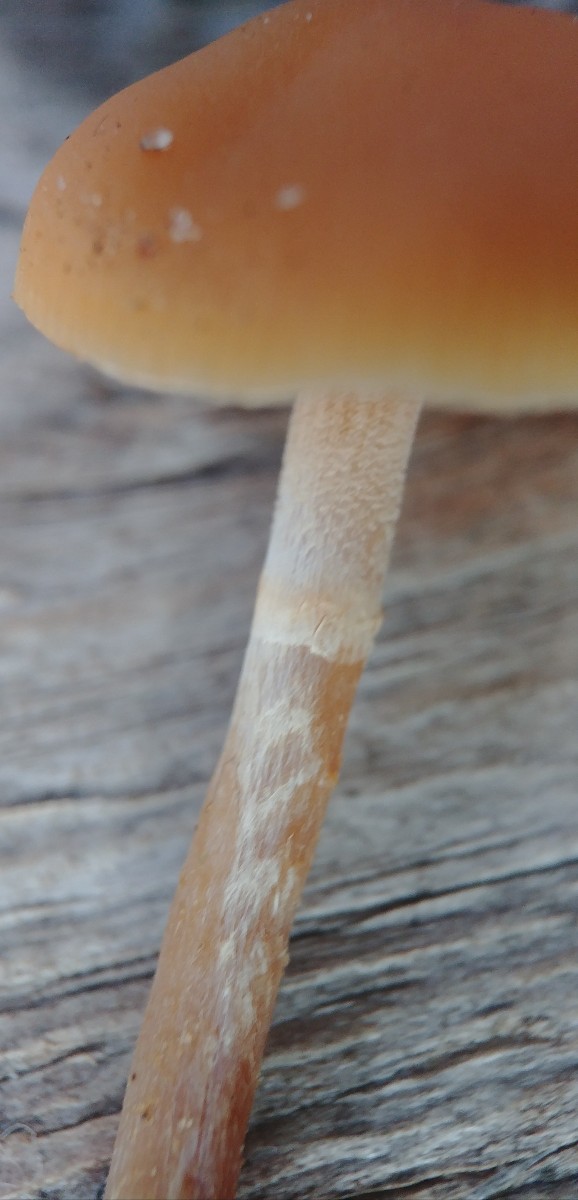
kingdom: Fungi
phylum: Basidiomycota
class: Agaricomycetes
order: Agaricales
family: Hymenogastraceae
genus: Galerina
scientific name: Galerina marginata
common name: randbæltet hjelmhat
